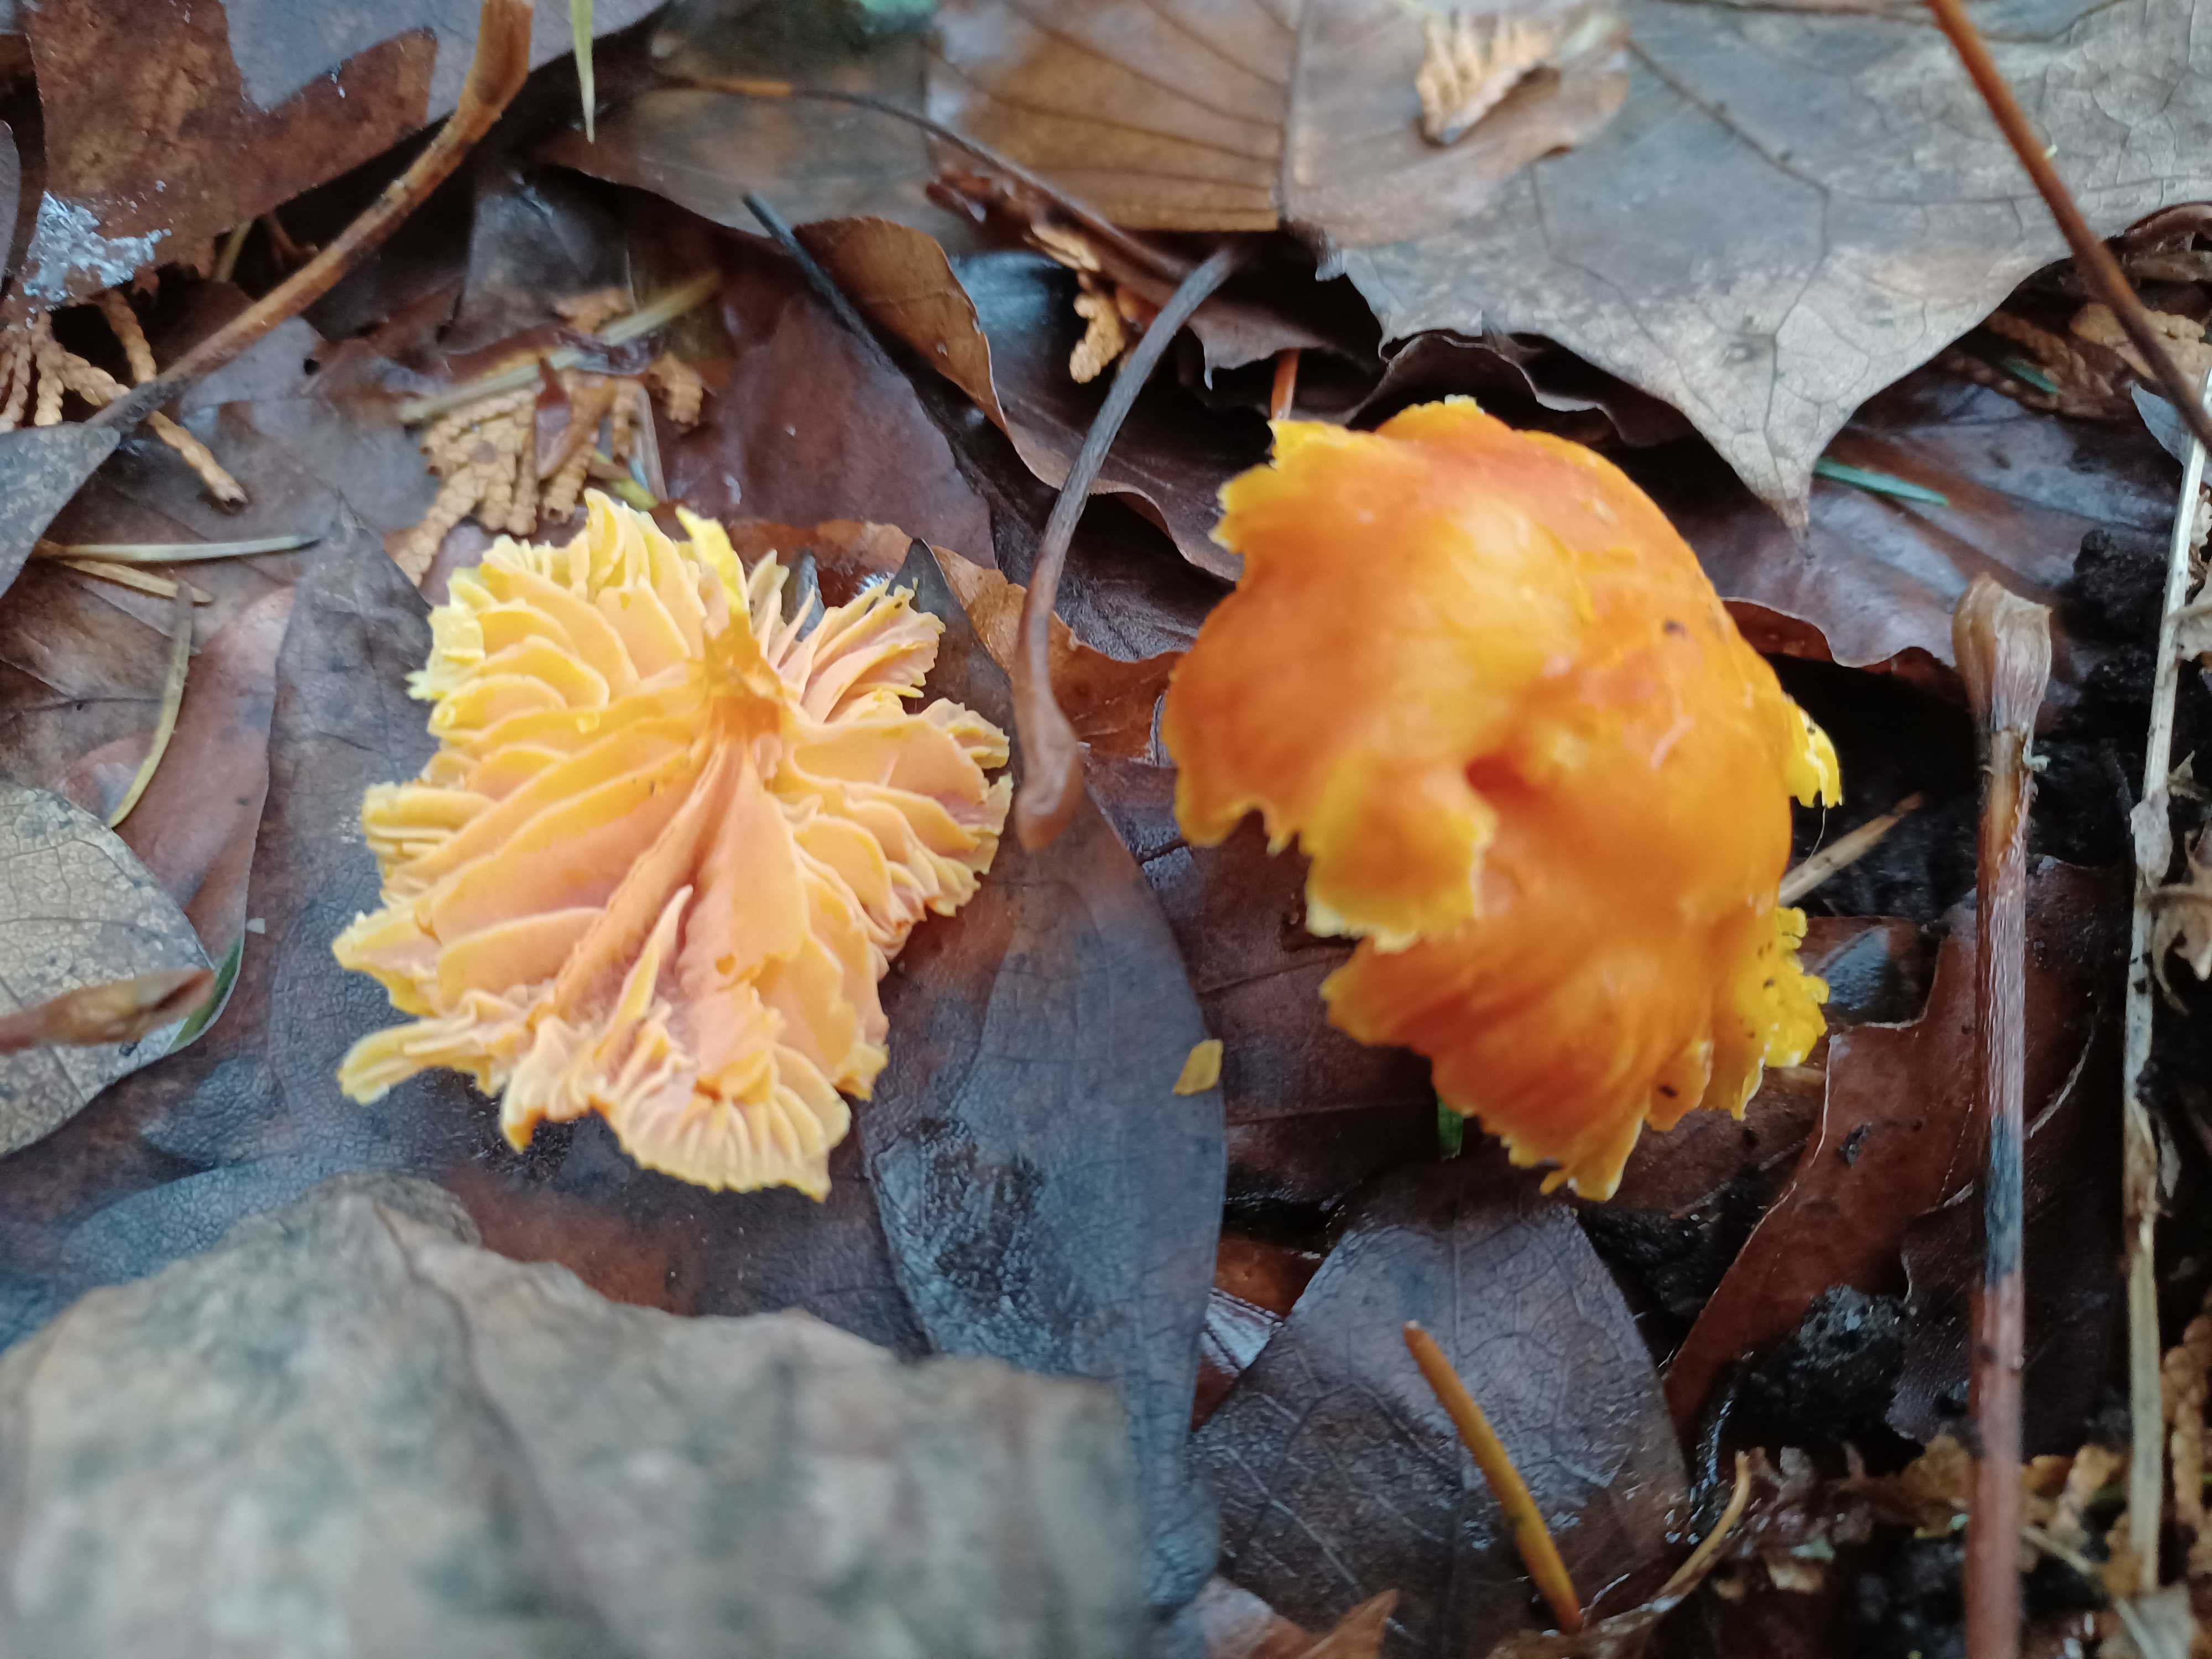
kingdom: Fungi
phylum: Basidiomycota
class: Agaricomycetes
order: Agaricales
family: Hygrophoraceae
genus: Hygrocybe
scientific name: Hygrocybe
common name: vokshat
